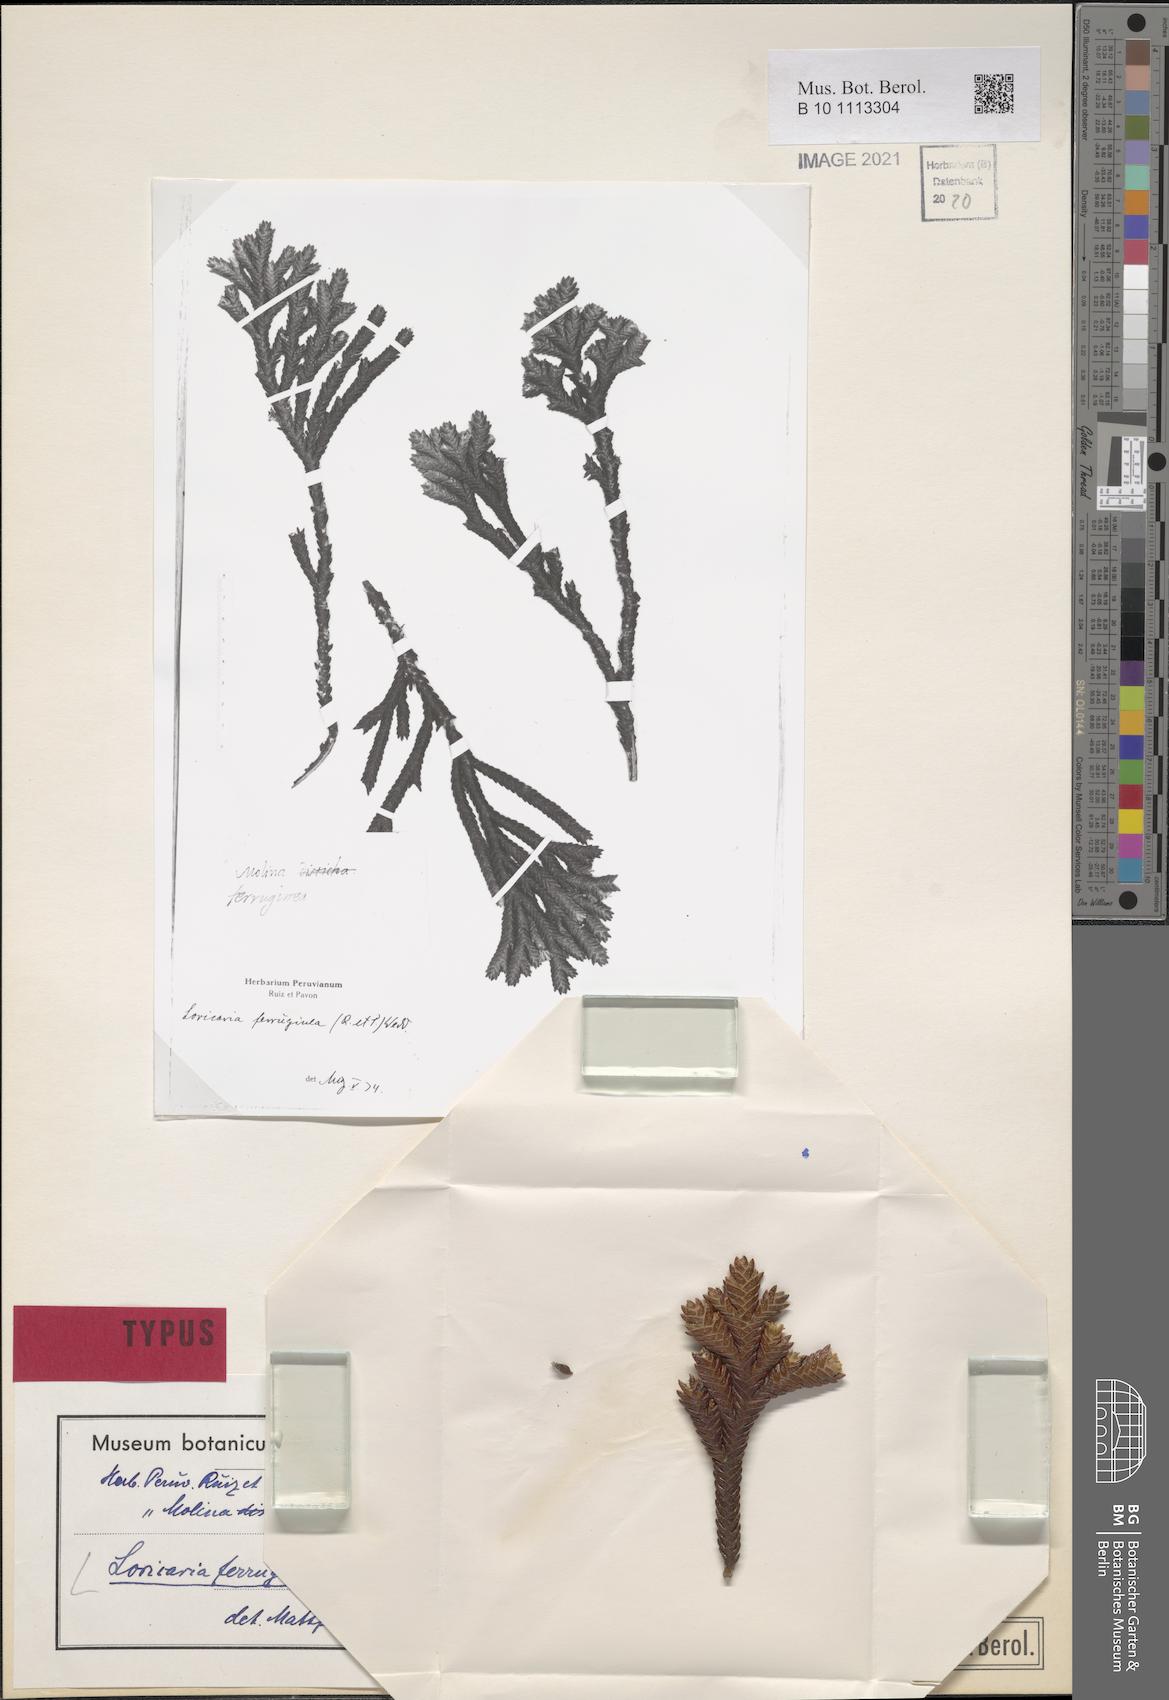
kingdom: Plantae
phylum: Tracheophyta
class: Magnoliopsida
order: Asterales
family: Asteraceae
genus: Andicolea
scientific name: Andicolea ferruginea
